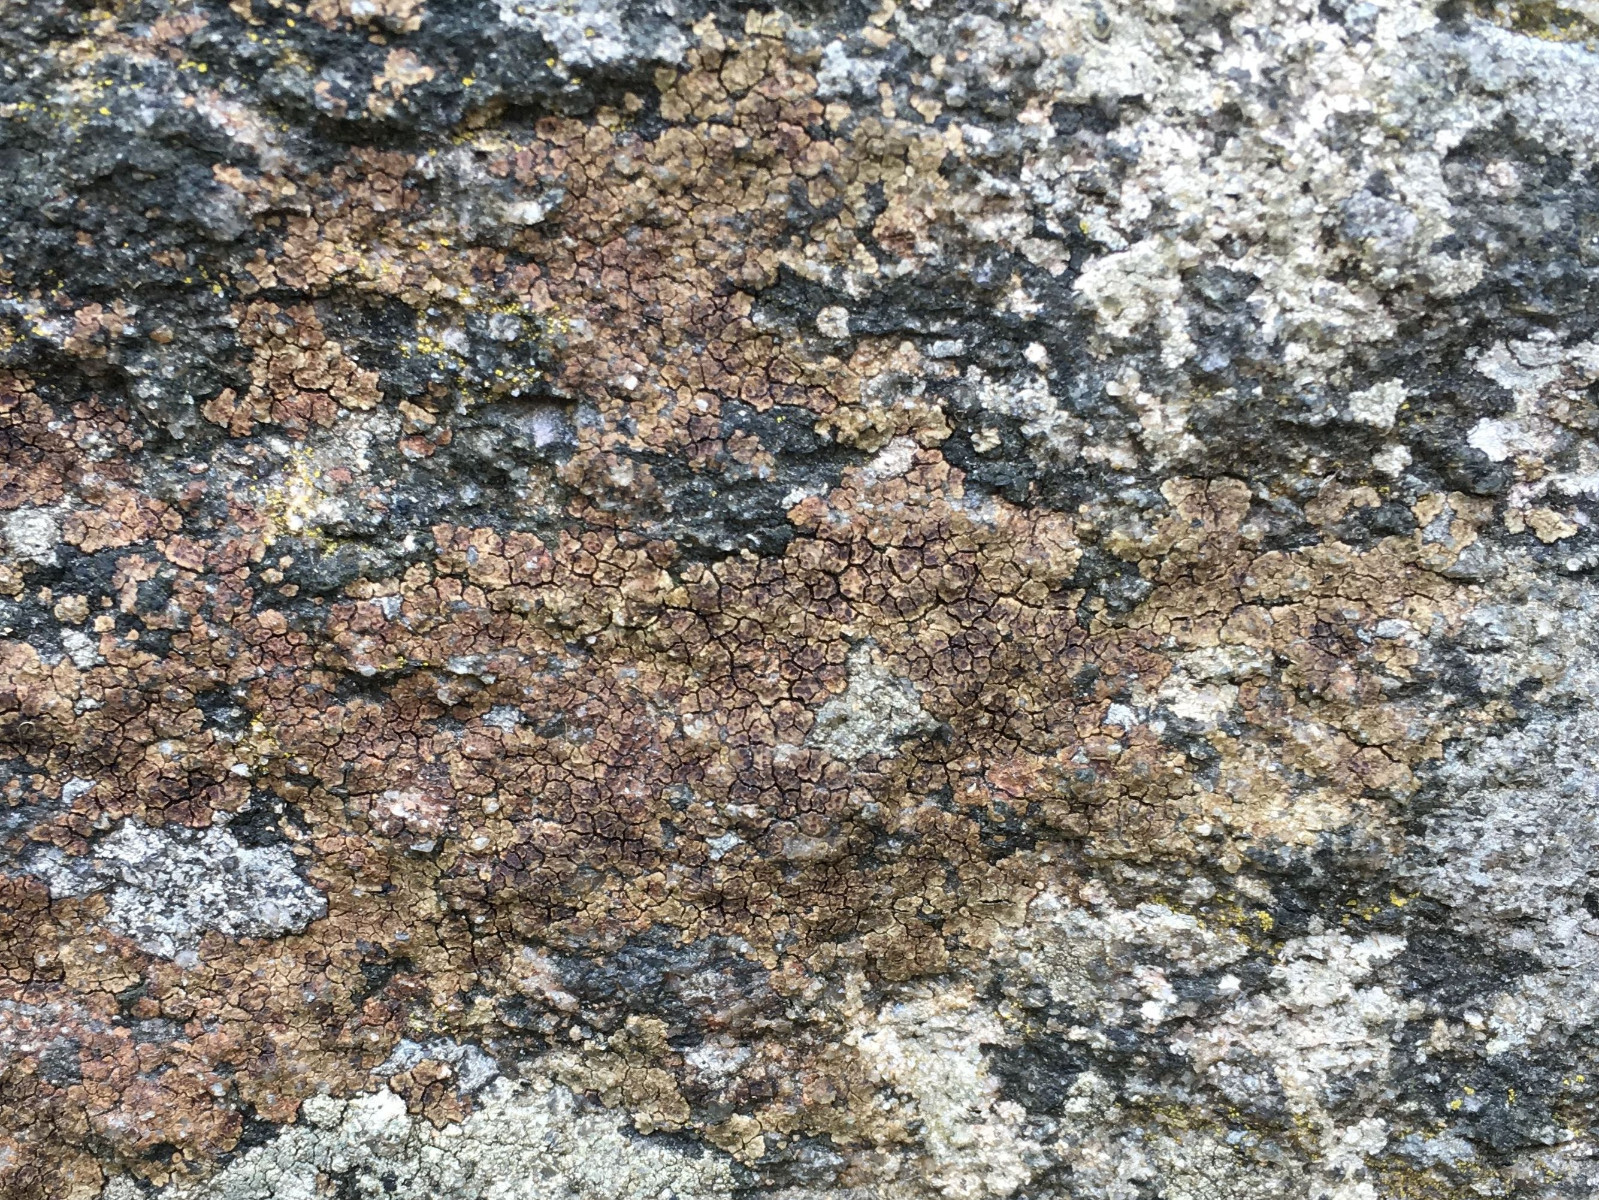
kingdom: Fungi
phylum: Ascomycota
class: Lecanoromycetes
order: Acarosporales
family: Acarosporaceae
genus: Acarospora
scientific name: Acarospora fuscata
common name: brun småsporelav
